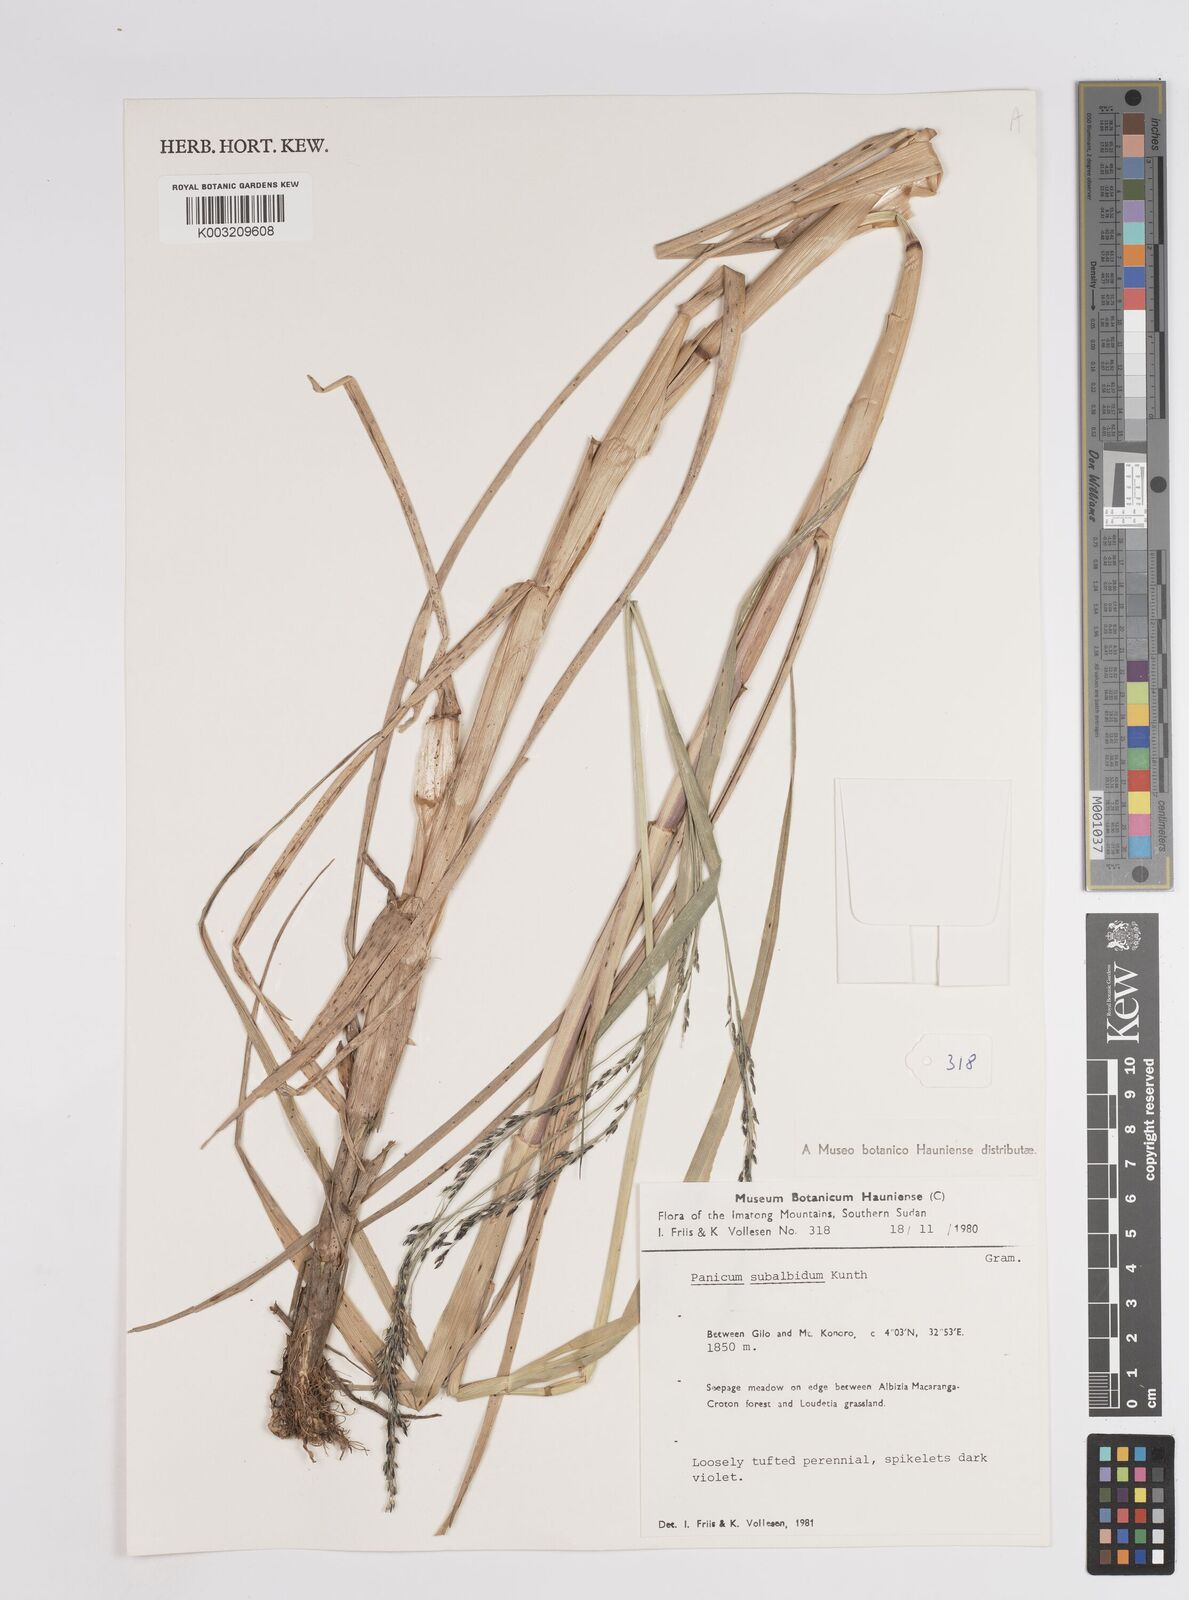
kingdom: Plantae
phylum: Tracheophyta
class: Liliopsida
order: Poales
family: Poaceae
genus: Panicum
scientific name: Panicum subalbidum
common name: Elbow buffalo grass
